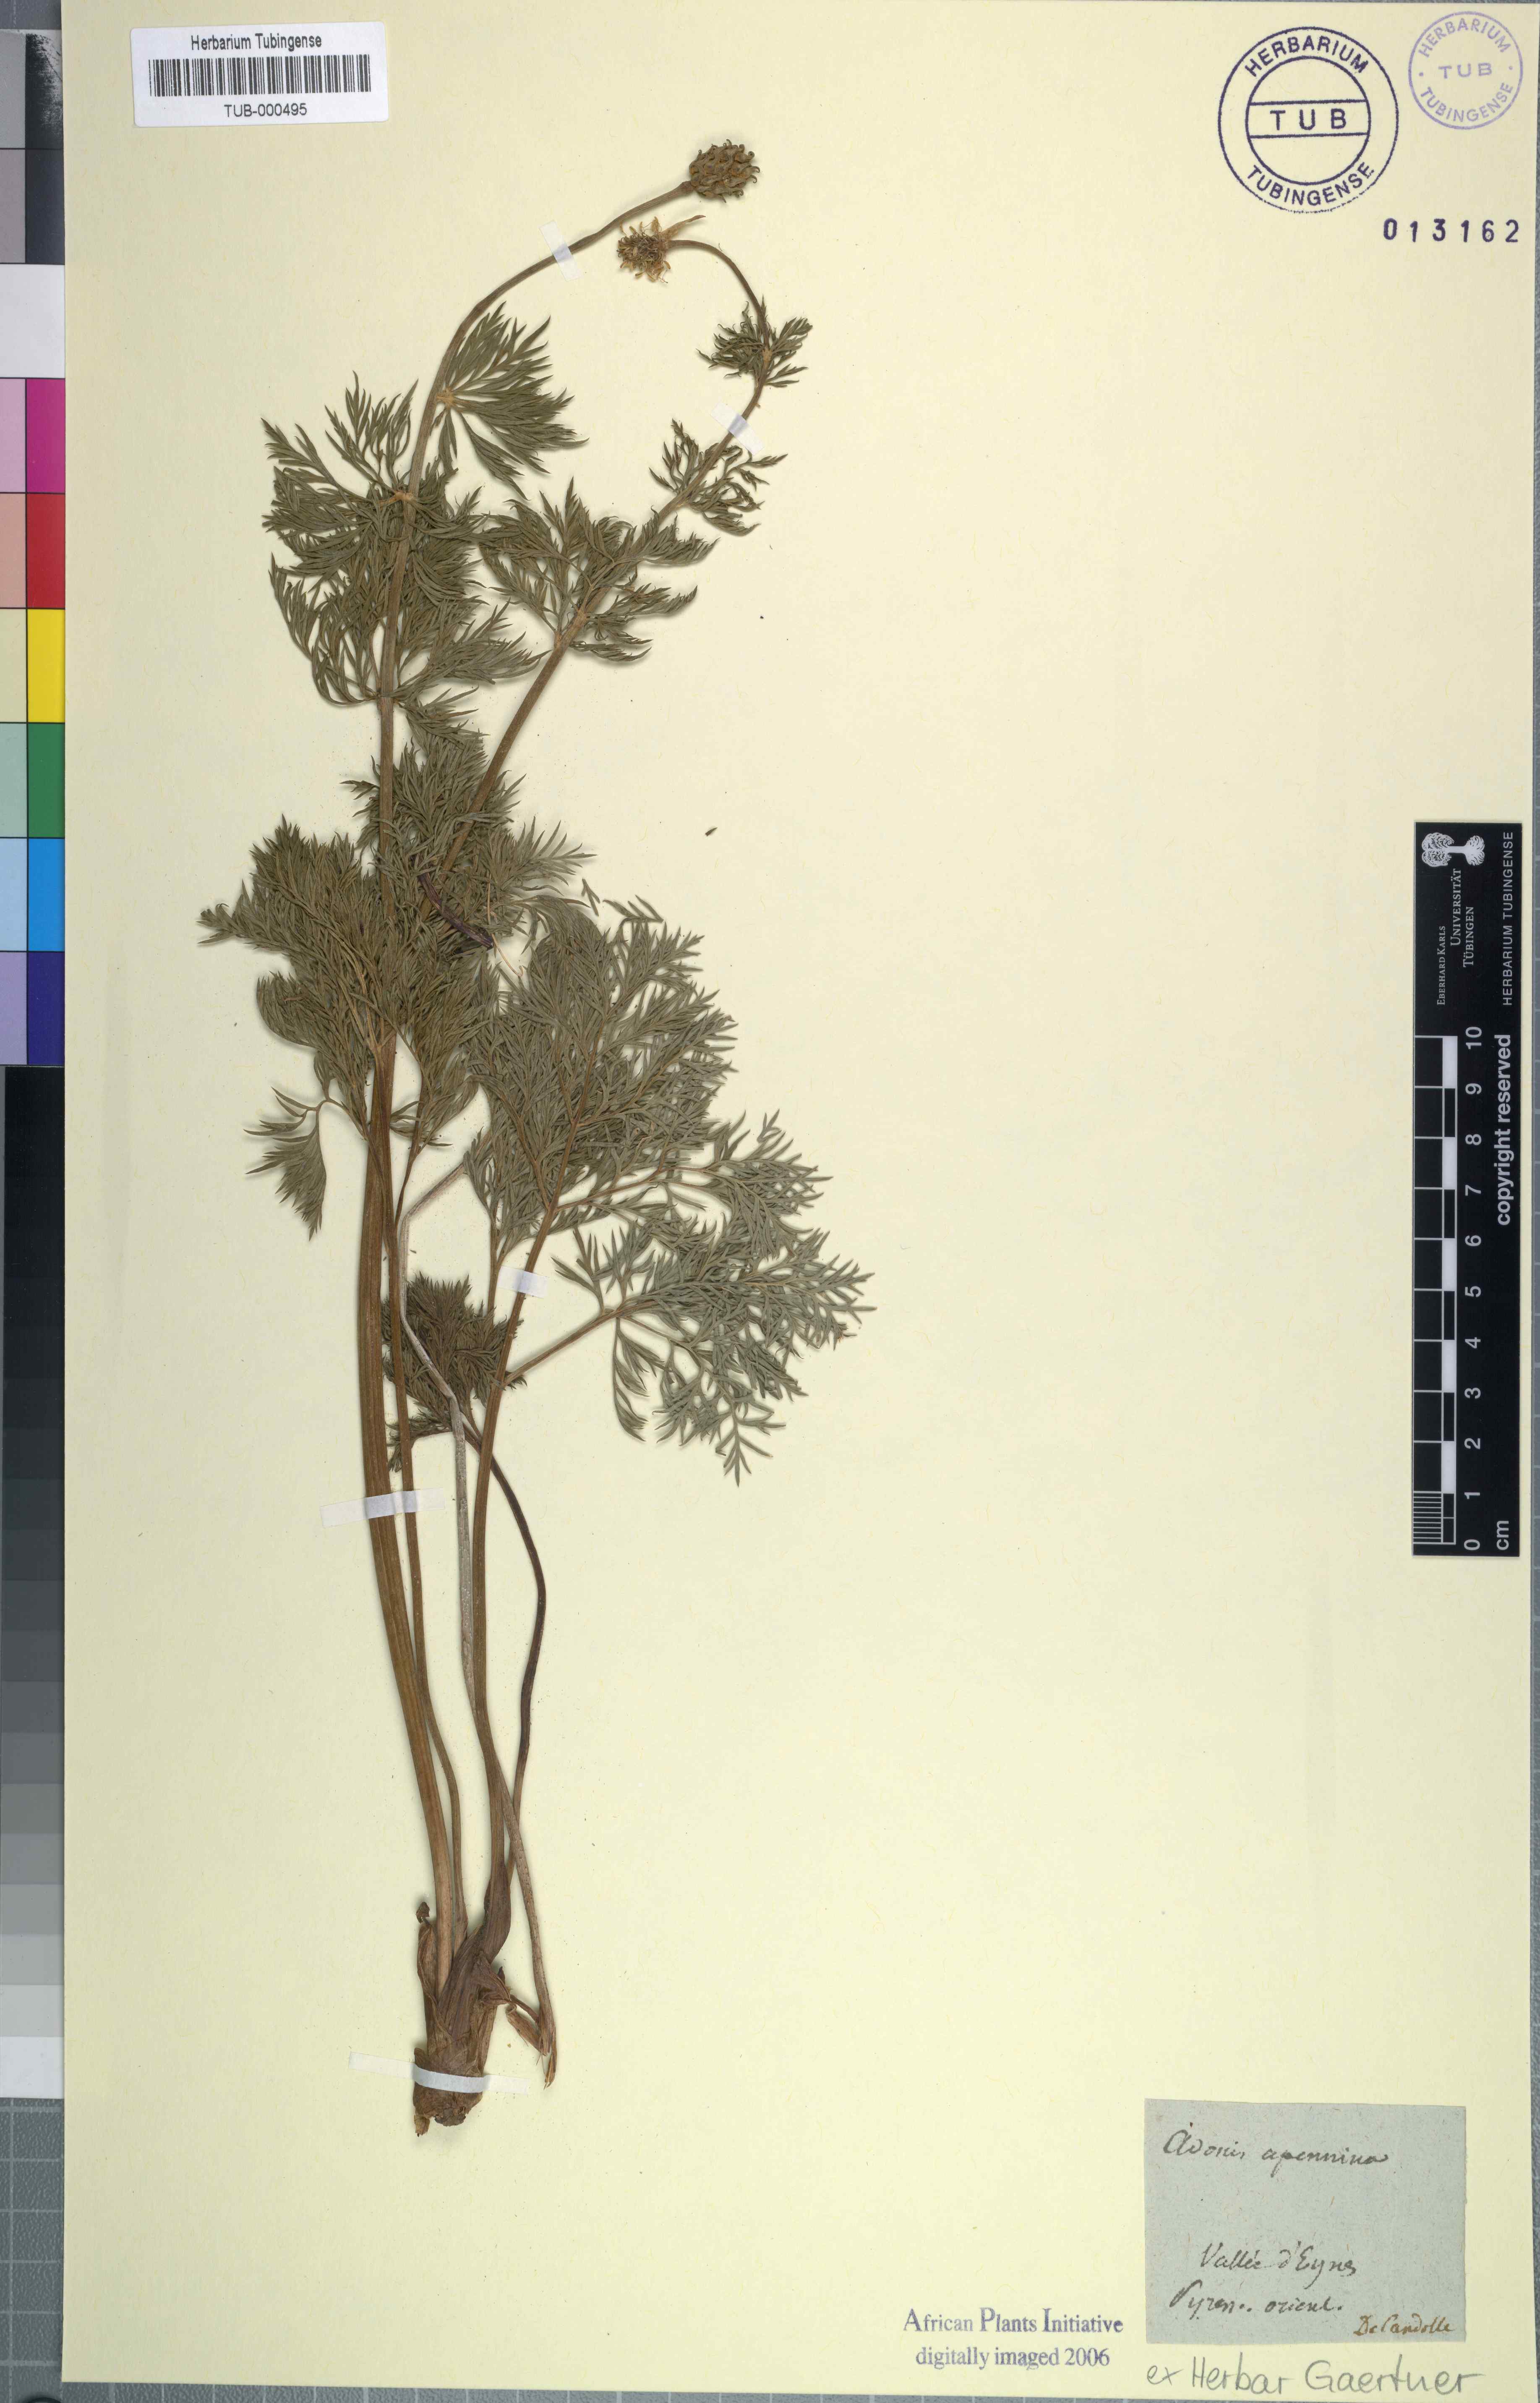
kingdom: Plantae
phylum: Tracheophyta
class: Magnoliopsida
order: Ranunculales
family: Ranunculaceae
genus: Adonis
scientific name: Adonis vernalis
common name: Yellow pheasants-eye
